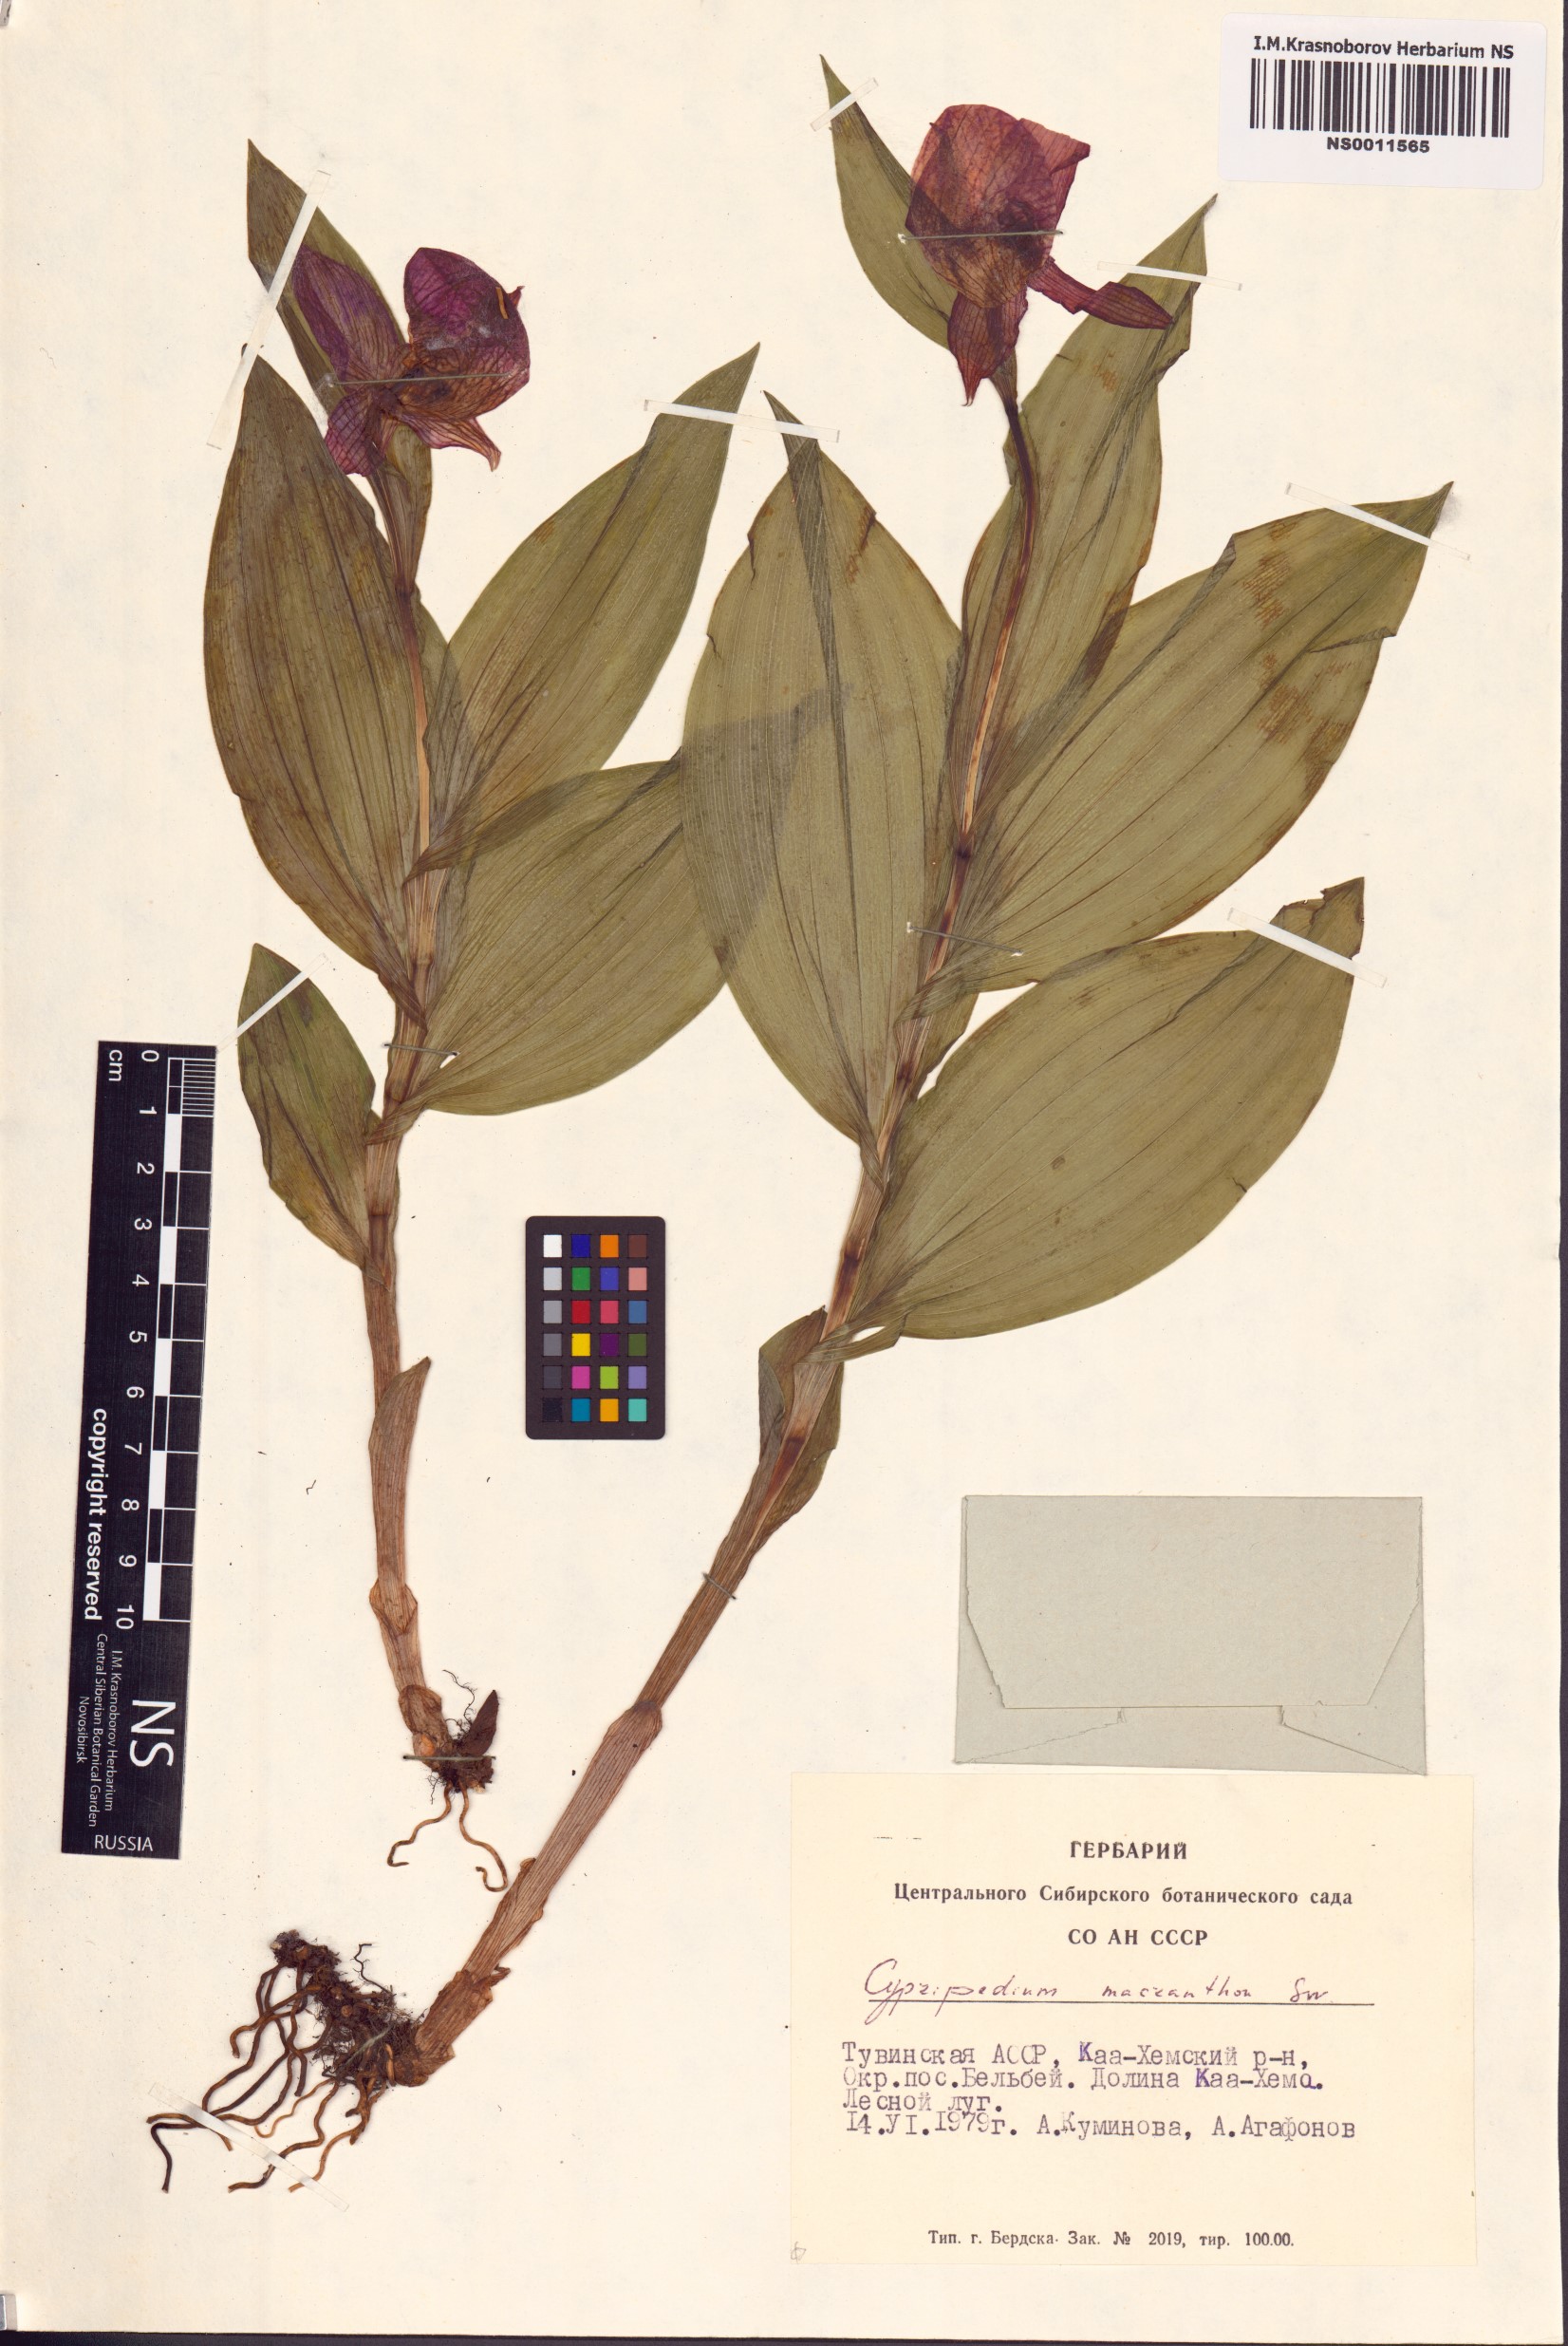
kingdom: Plantae
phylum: Tracheophyta
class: Liliopsida
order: Asparagales
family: Orchidaceae
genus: Cypripedium
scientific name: Cypripedium macranthos
